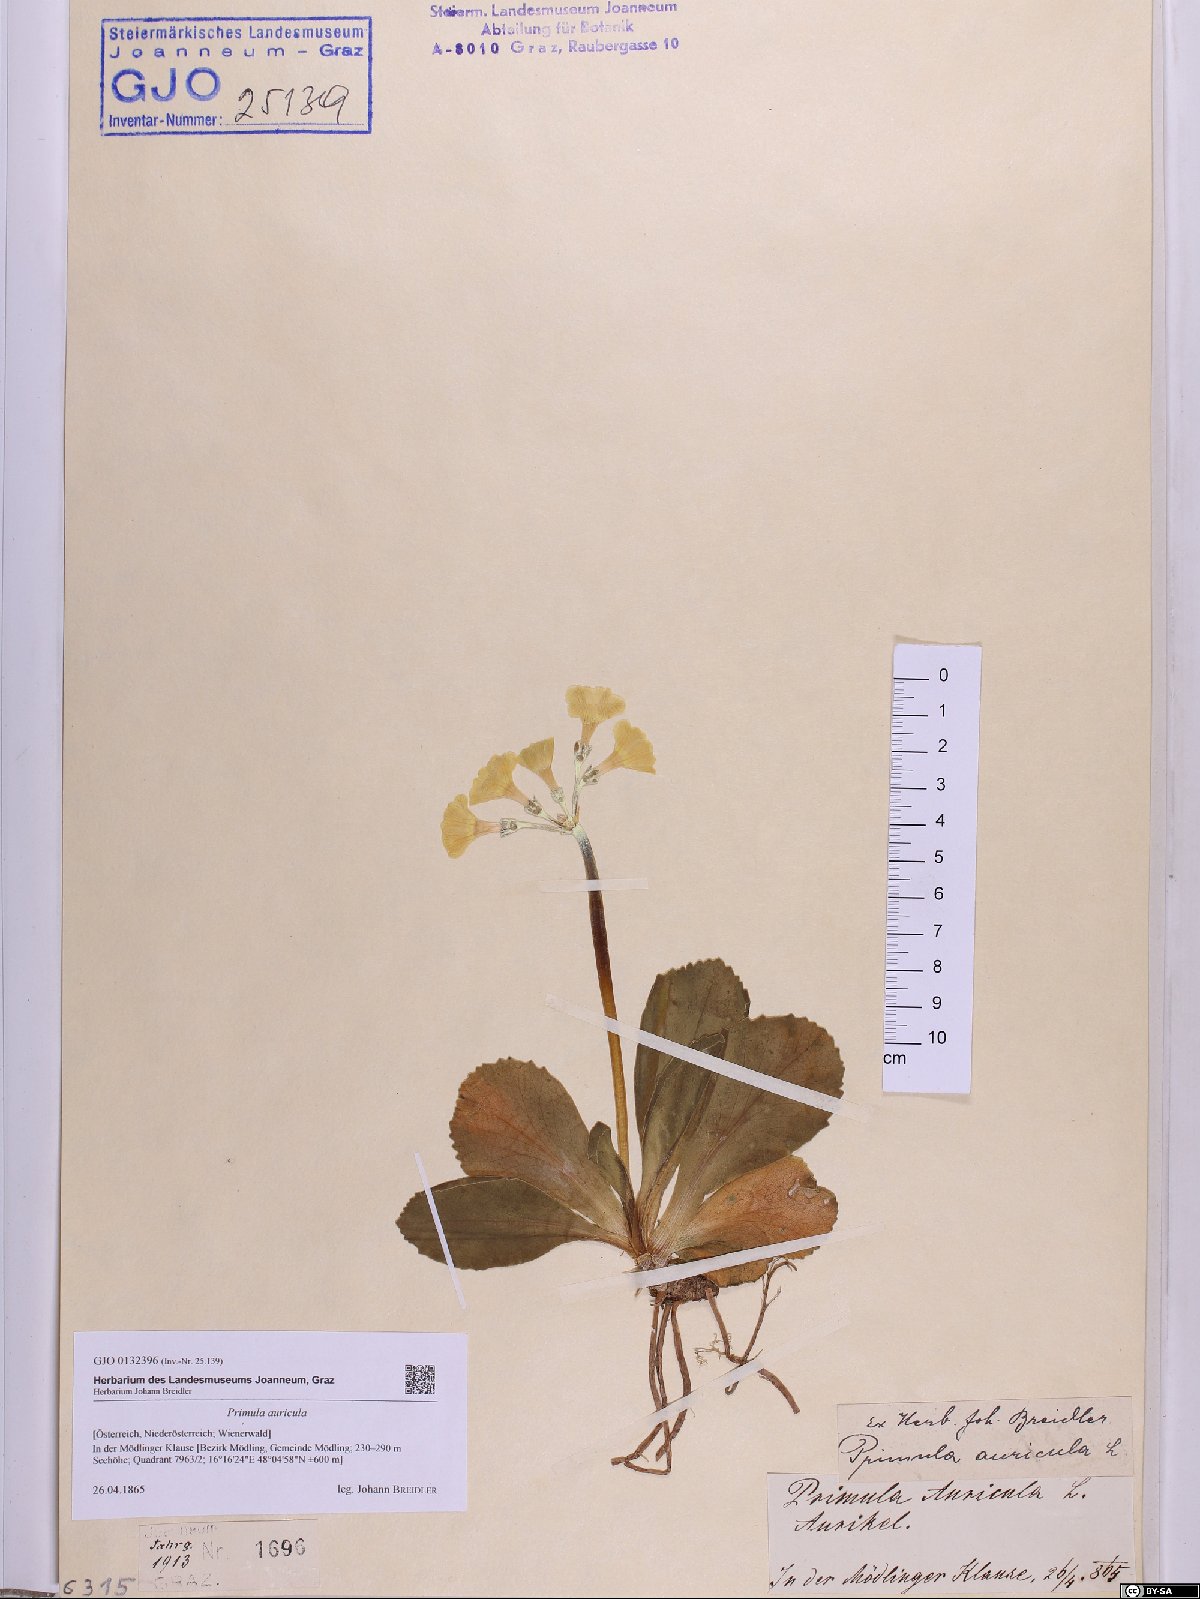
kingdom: Plantae
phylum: Tracheophyta
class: Magnoliopsida
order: Ericales
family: Primulaceae
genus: Primula
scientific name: Primula auricula
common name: Auricula
